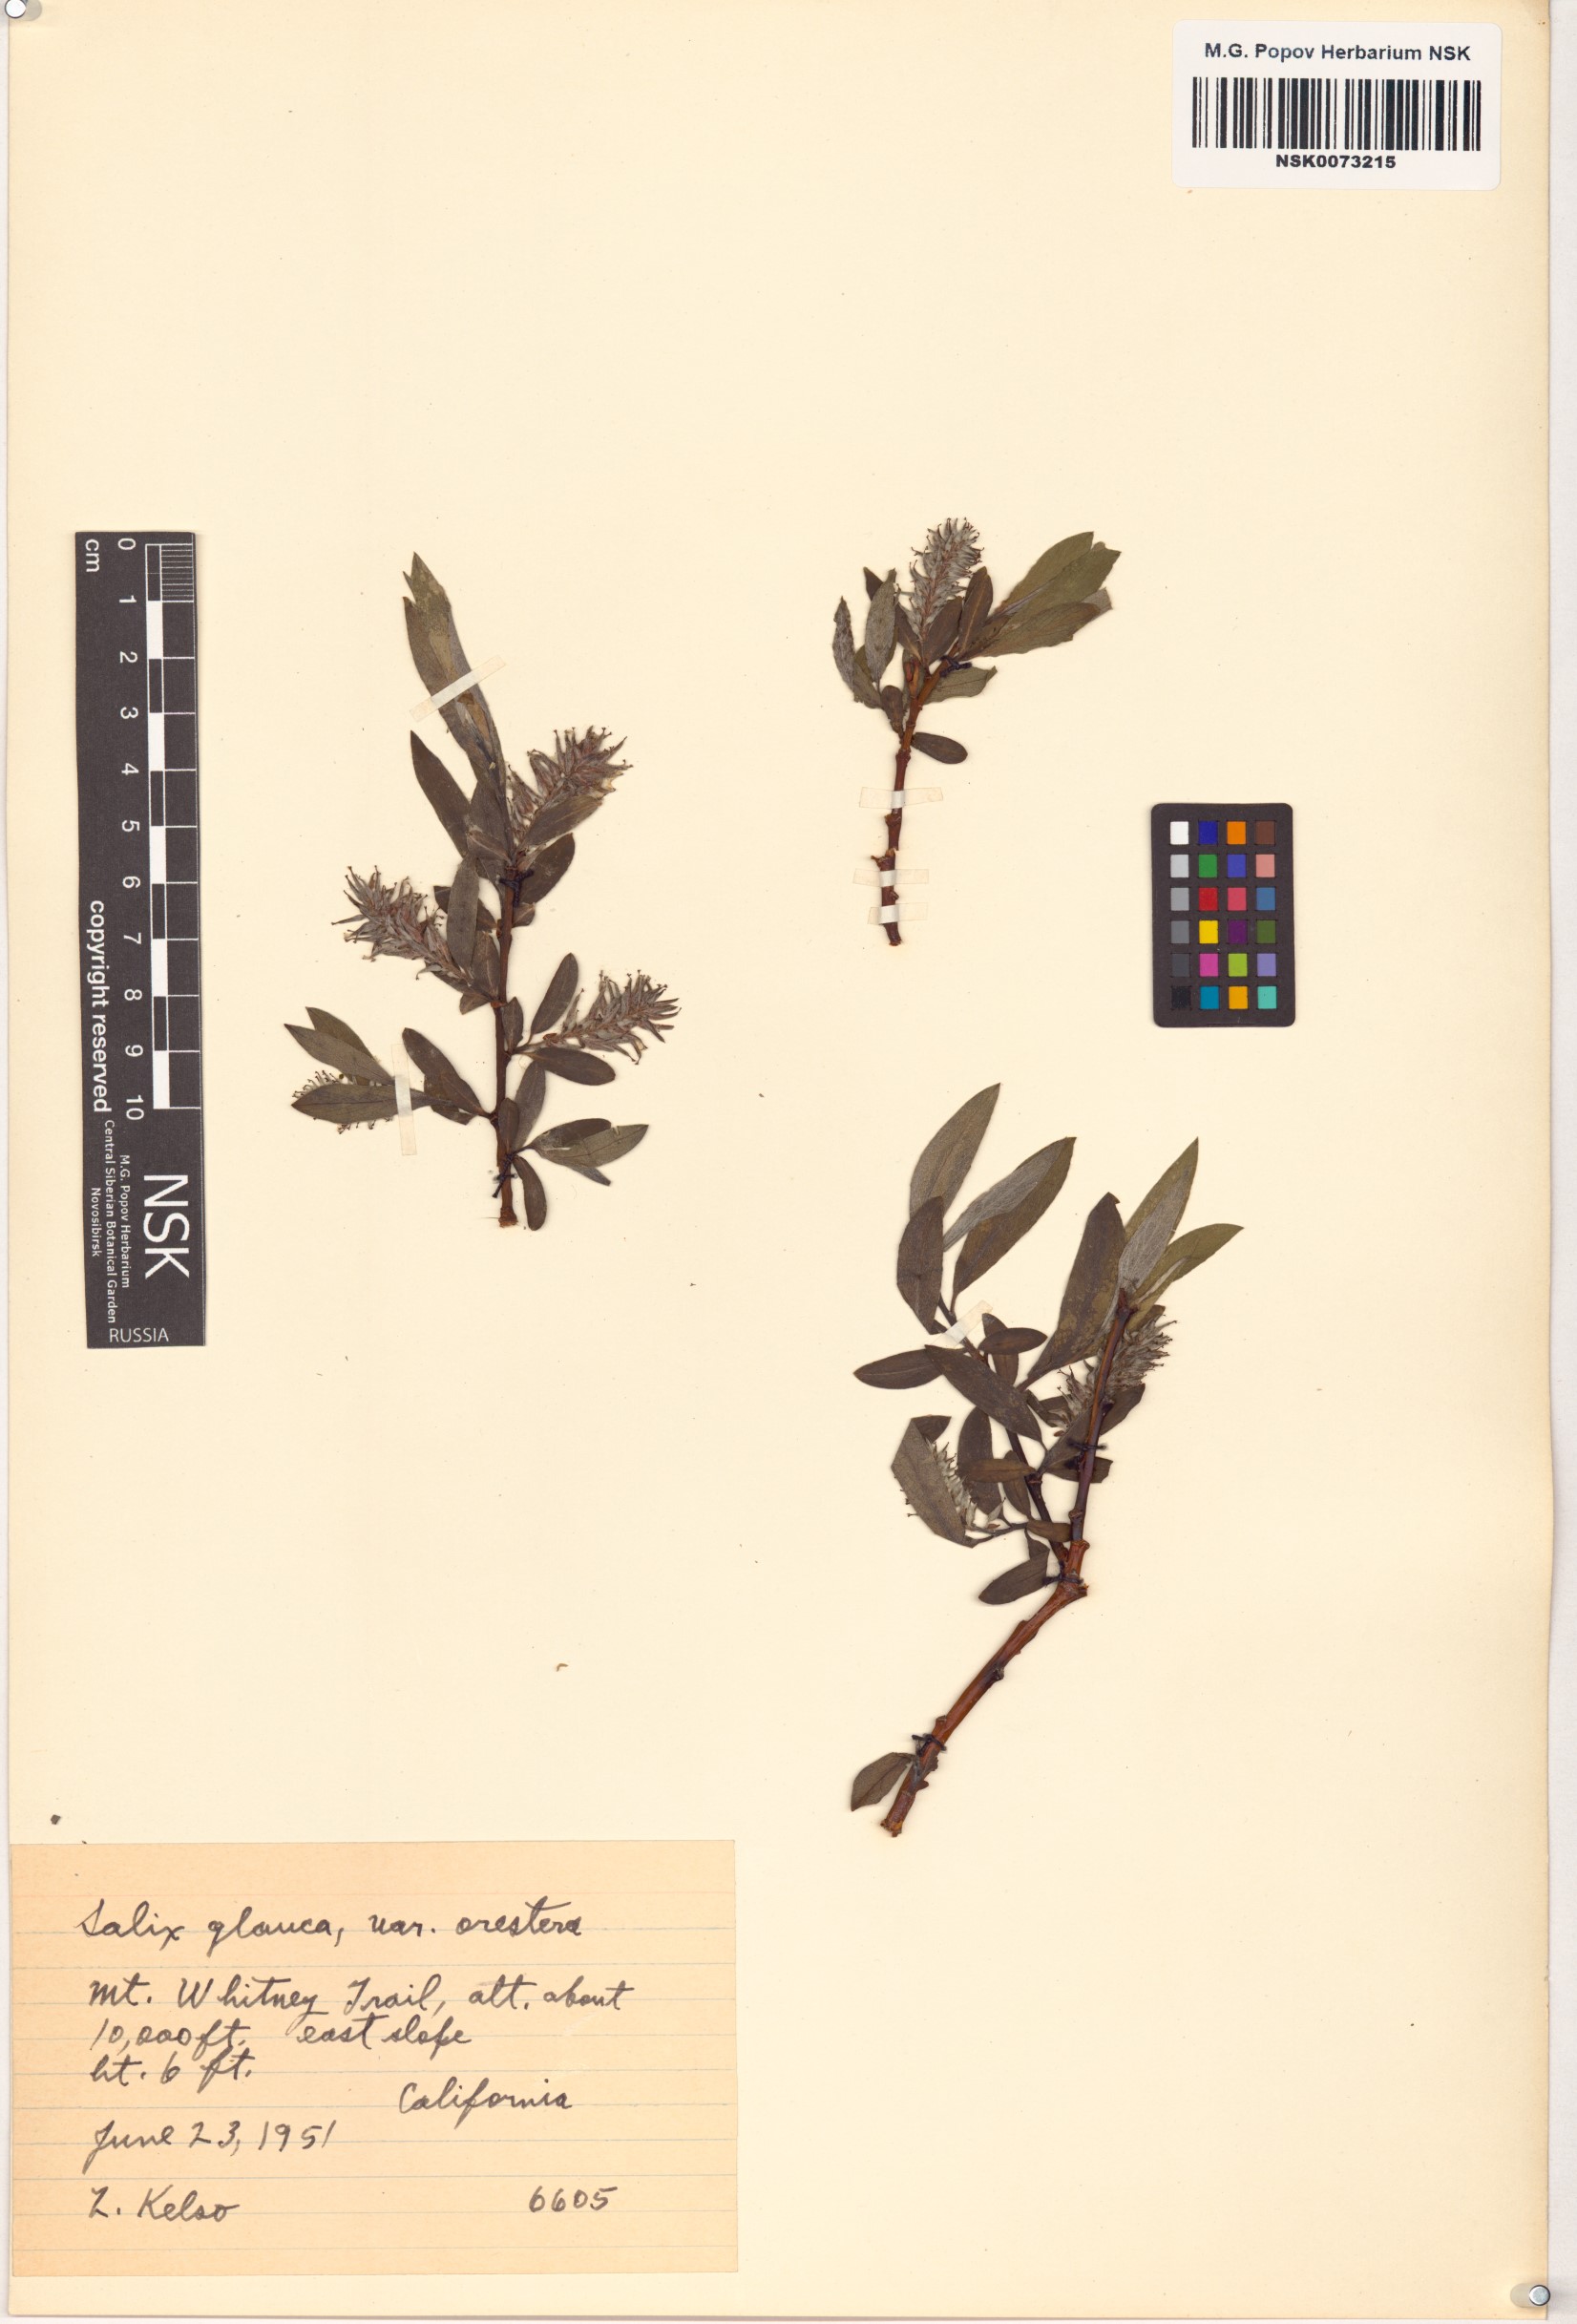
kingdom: Plantae
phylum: Tracheophyta
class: Magnoliopsida
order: Malpighiales
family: Salicaceae
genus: Salix
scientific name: Salix orestera
